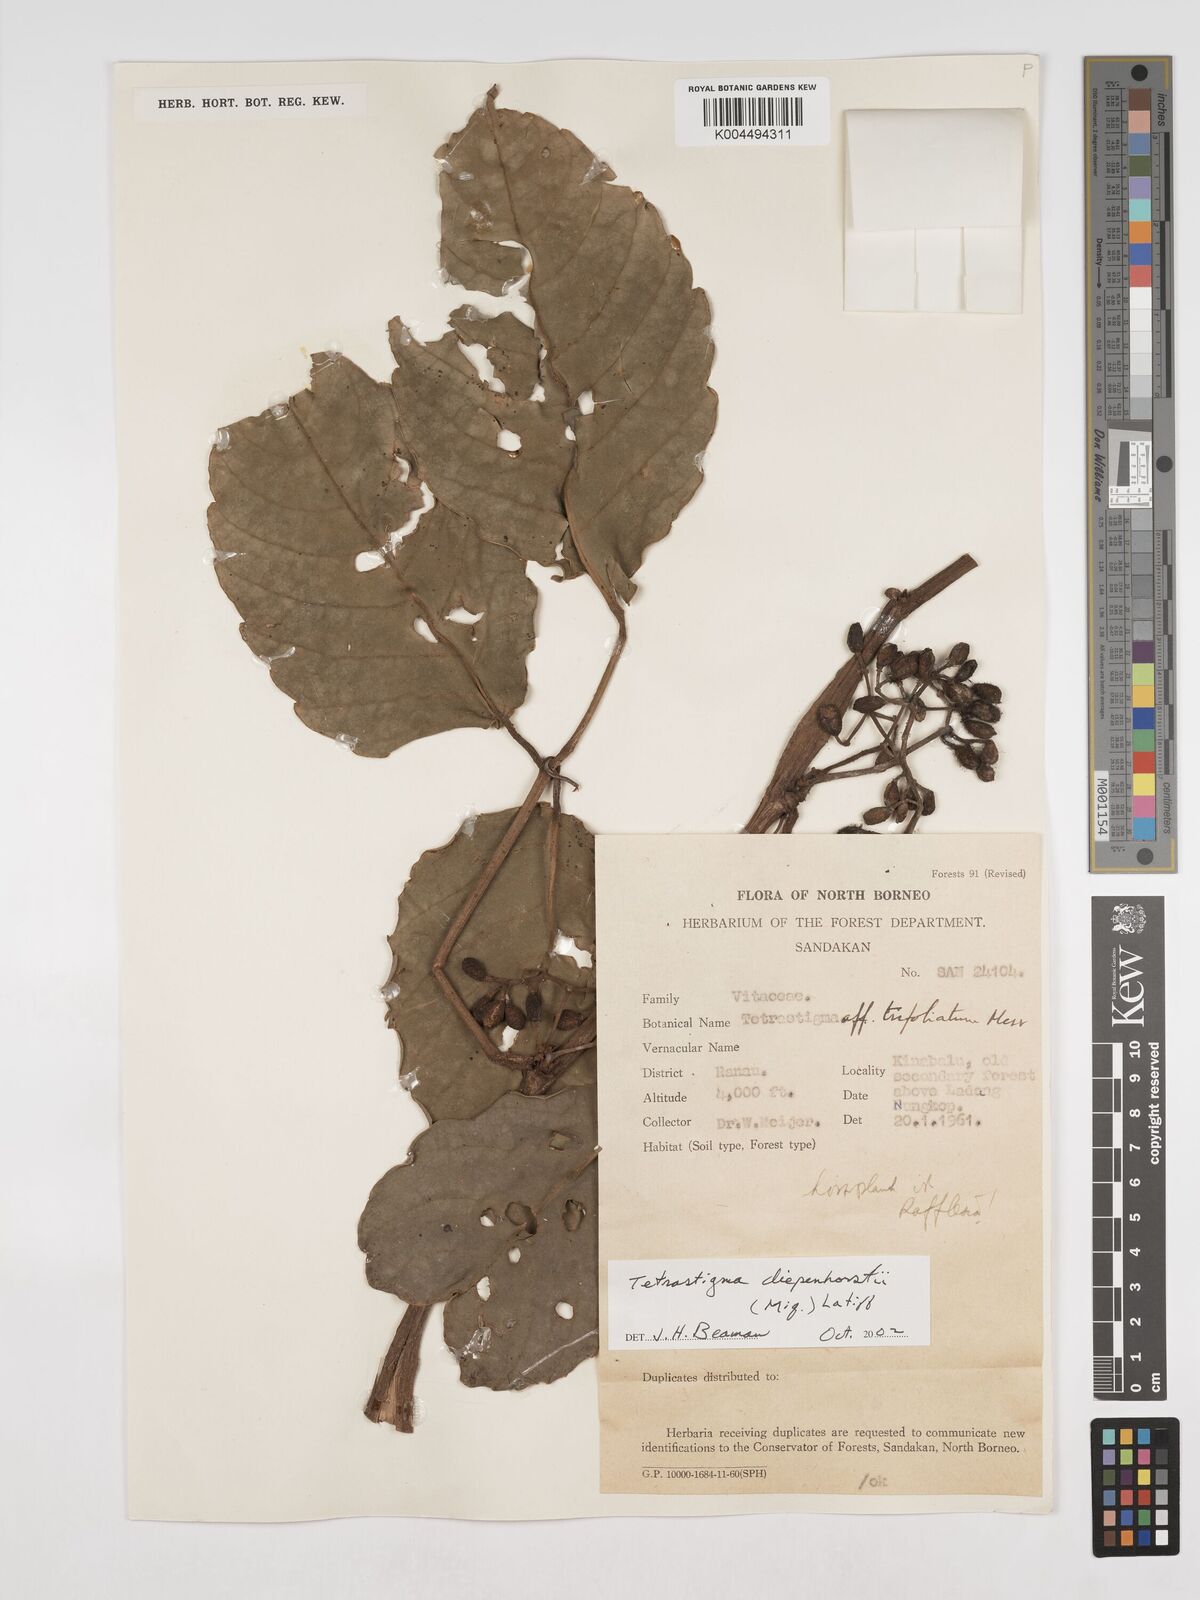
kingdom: Plantae
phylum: Tracheophyta
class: Magnoliopsida
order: Vitales
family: Vitaceae
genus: Tetrastigma
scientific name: Tetrastigma diepenhorstii
